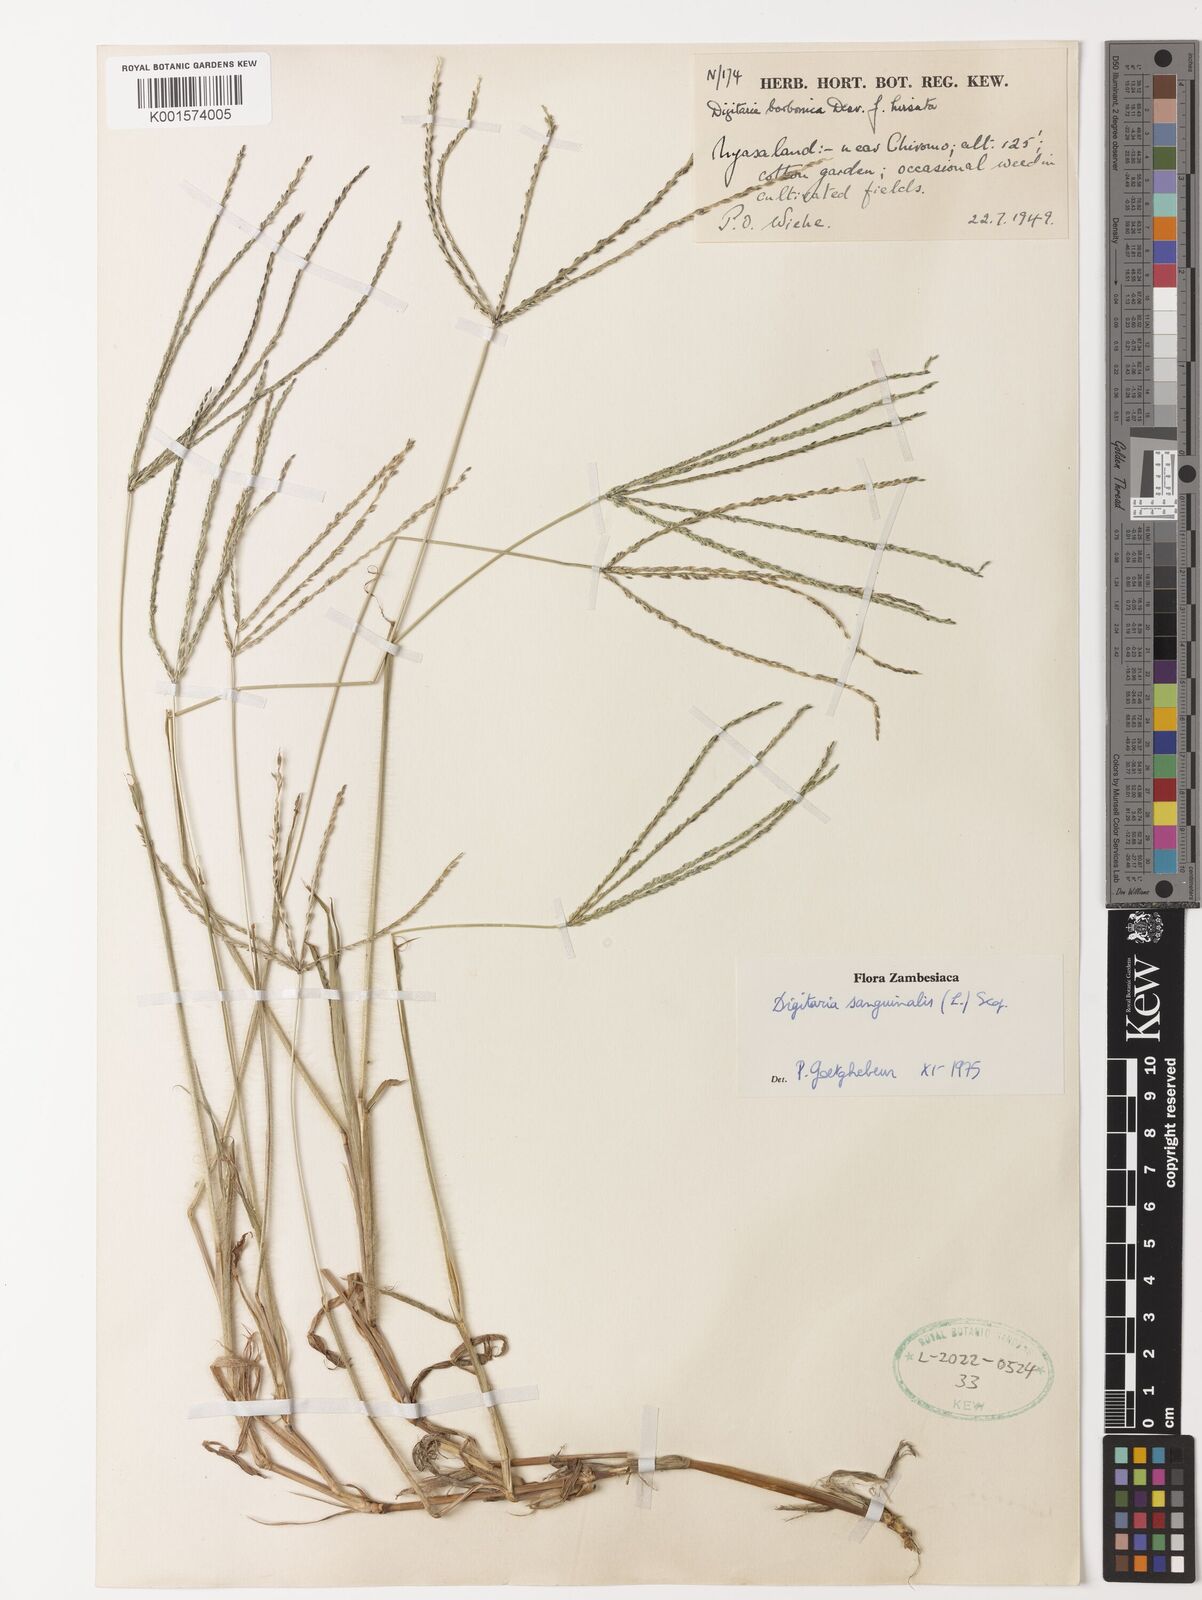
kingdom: Plantae
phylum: Tracheophyta
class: Liliopsida
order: Poales
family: Poaceae
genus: Digitaria
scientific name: Digitaria sanguinalis
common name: Hairy crabgrass
